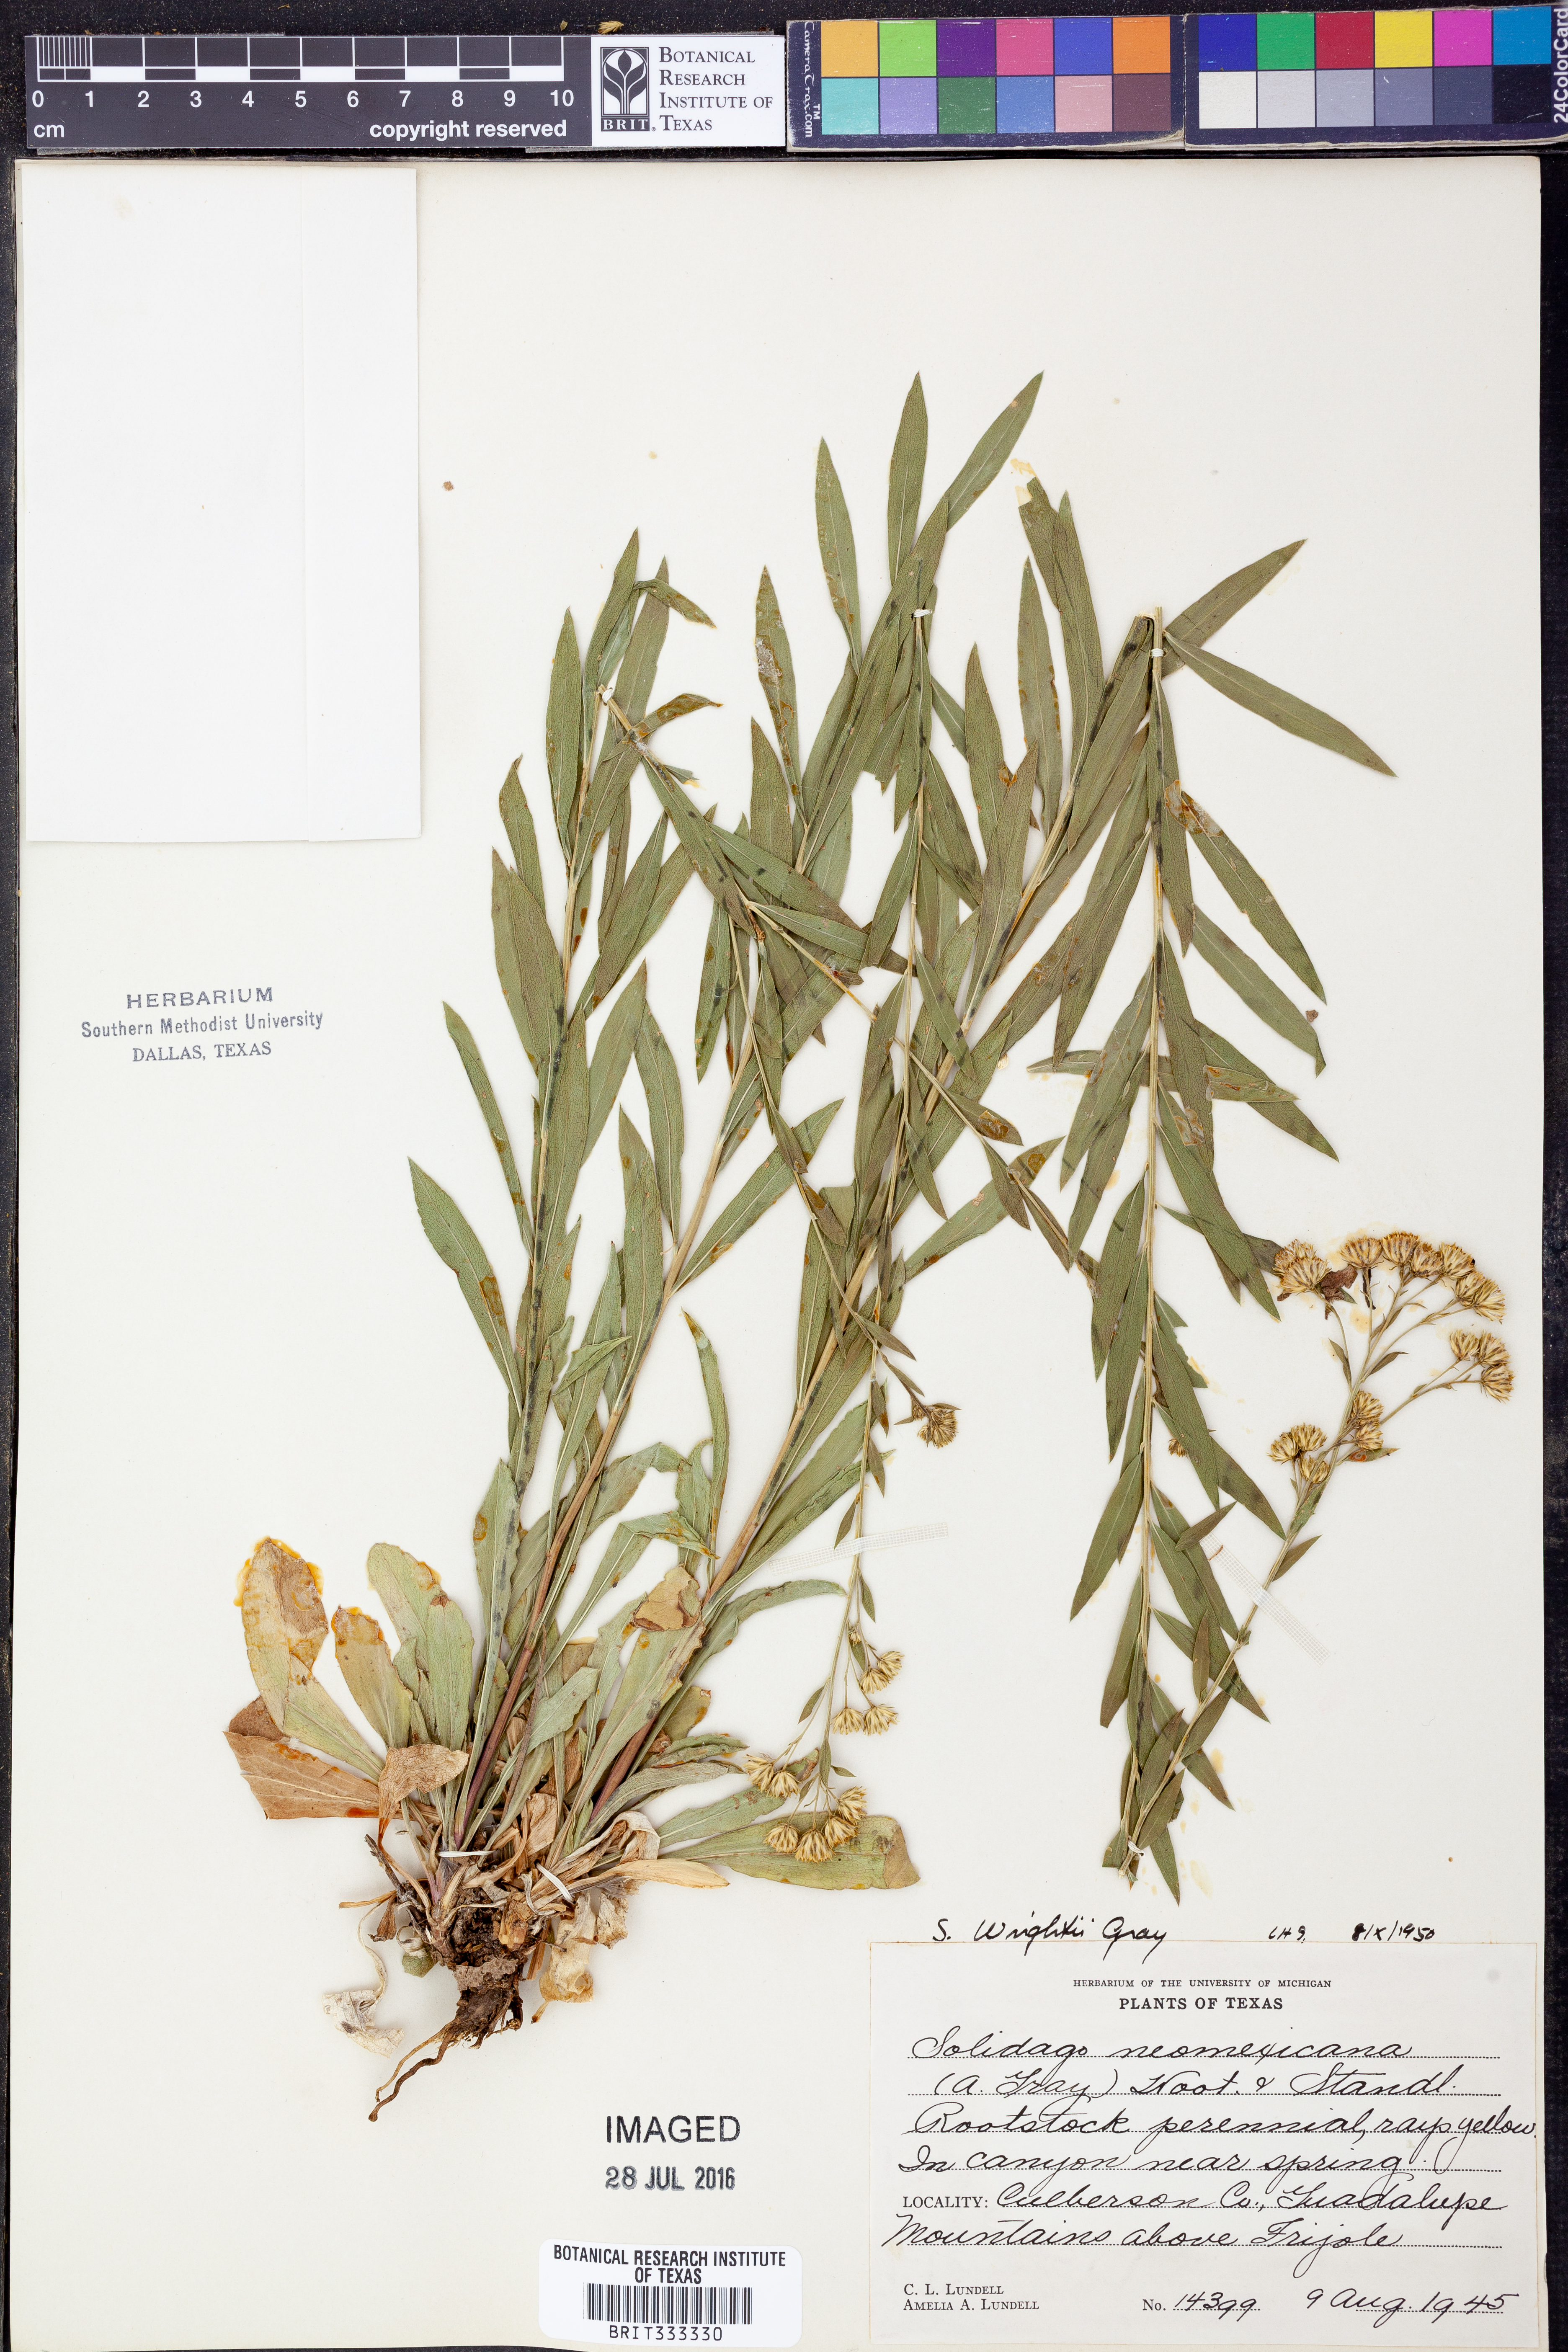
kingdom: Plantae
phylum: Tracheophyta
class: Magnoliopsida
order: Asterales
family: Asteraceae
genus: Solidago
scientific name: Solidago wrightii
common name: Wright's goldenrod
